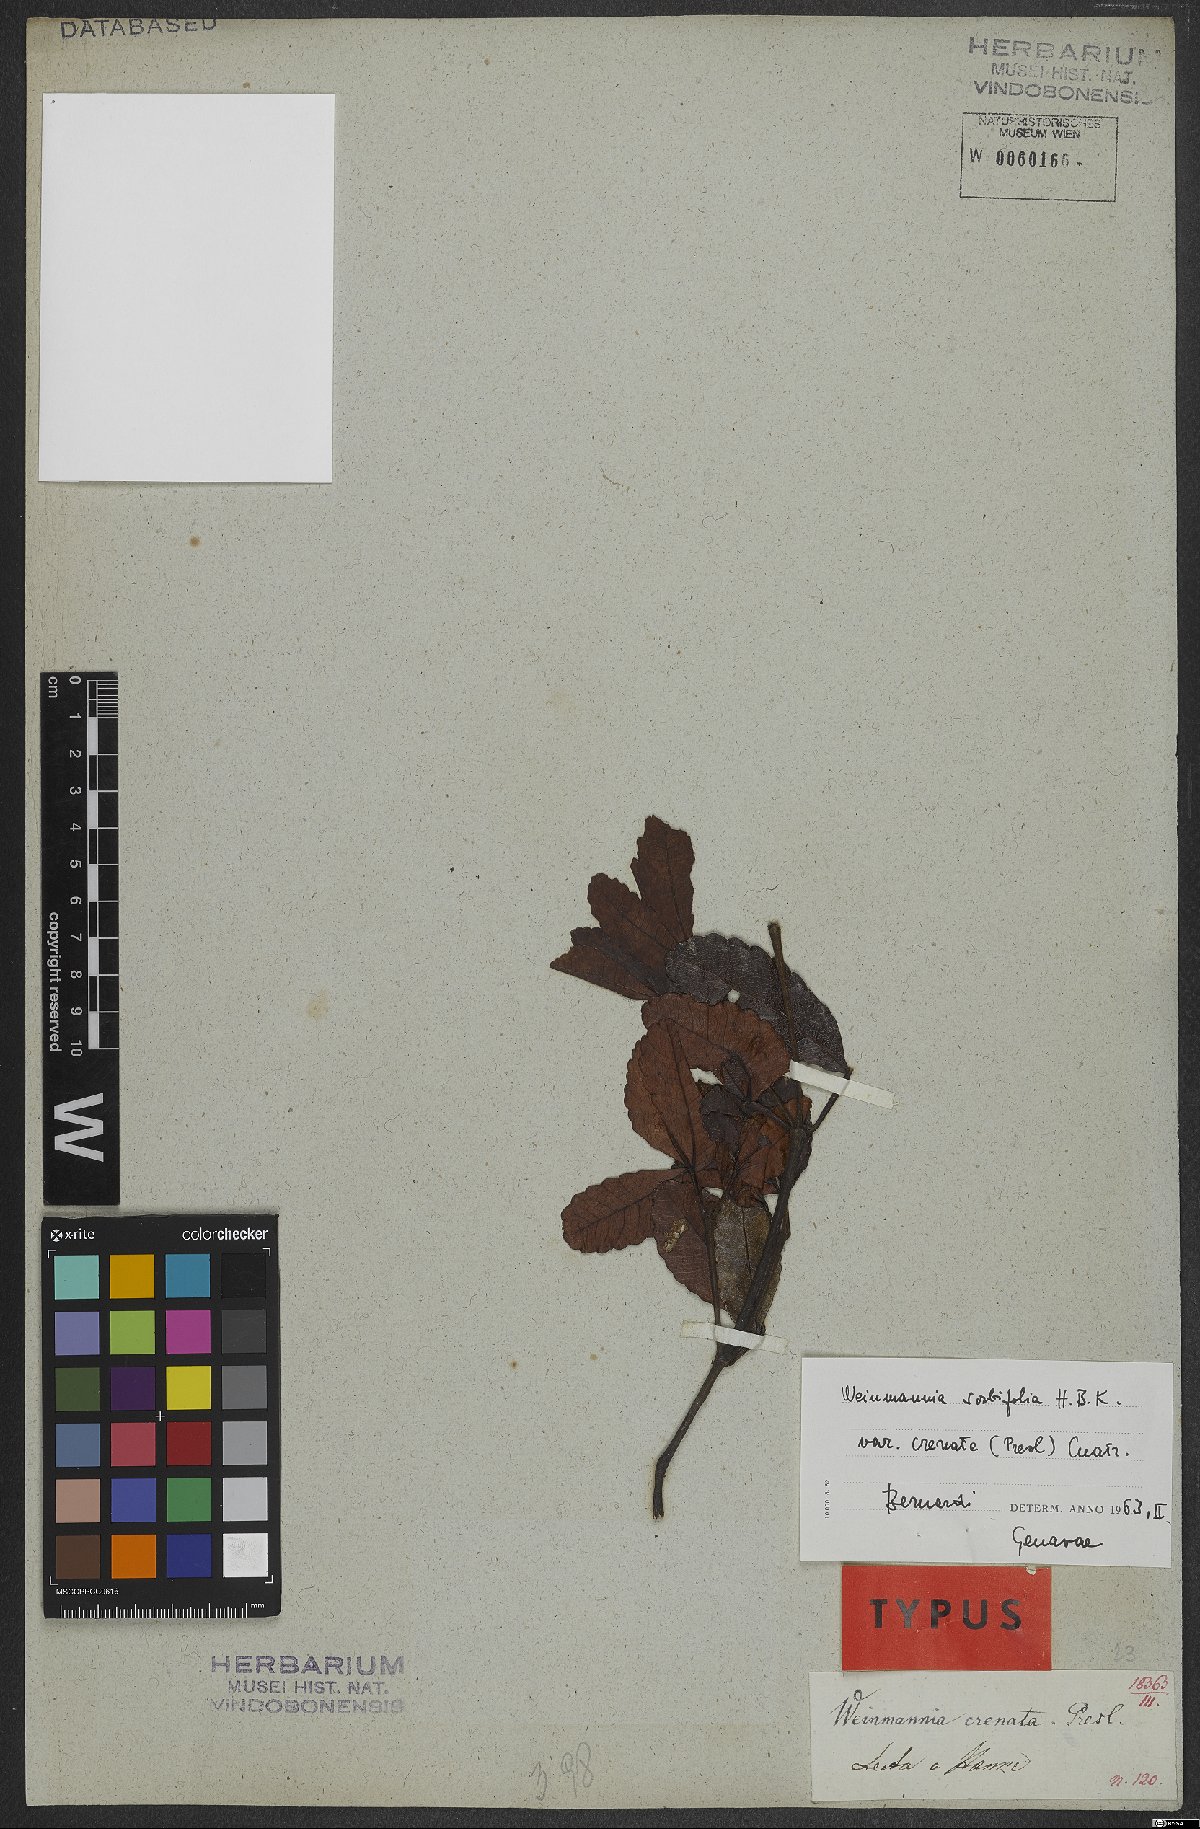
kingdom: Plantae
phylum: Tracheophyta
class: Magnoliopsida
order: Oxalidales
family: Cunoniaceae
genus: Weinmannia
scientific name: Weinmannia spruceana
